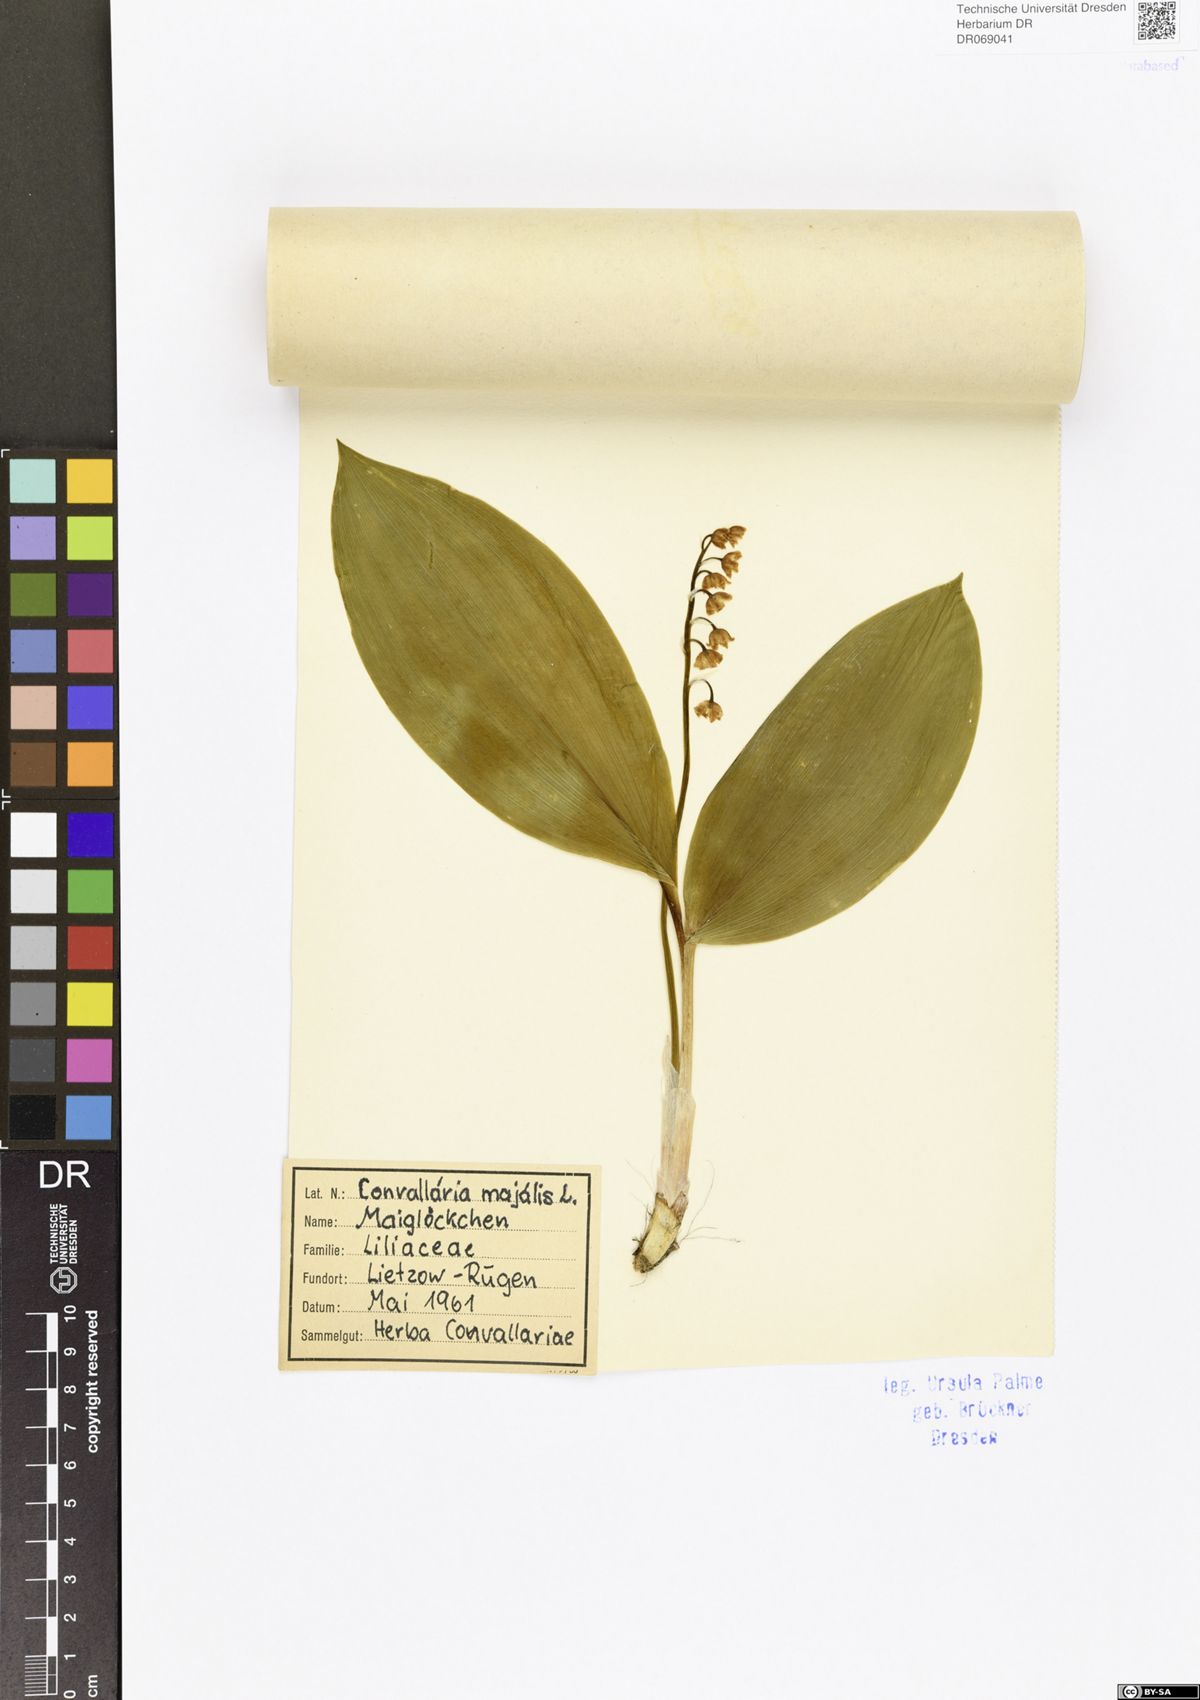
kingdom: Plantae
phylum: Tracheophyta
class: Liliopsida
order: Asparagales
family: Asparagaceae
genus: Convallaria
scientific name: Convallaria majalis
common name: Lily-of-the-valley
